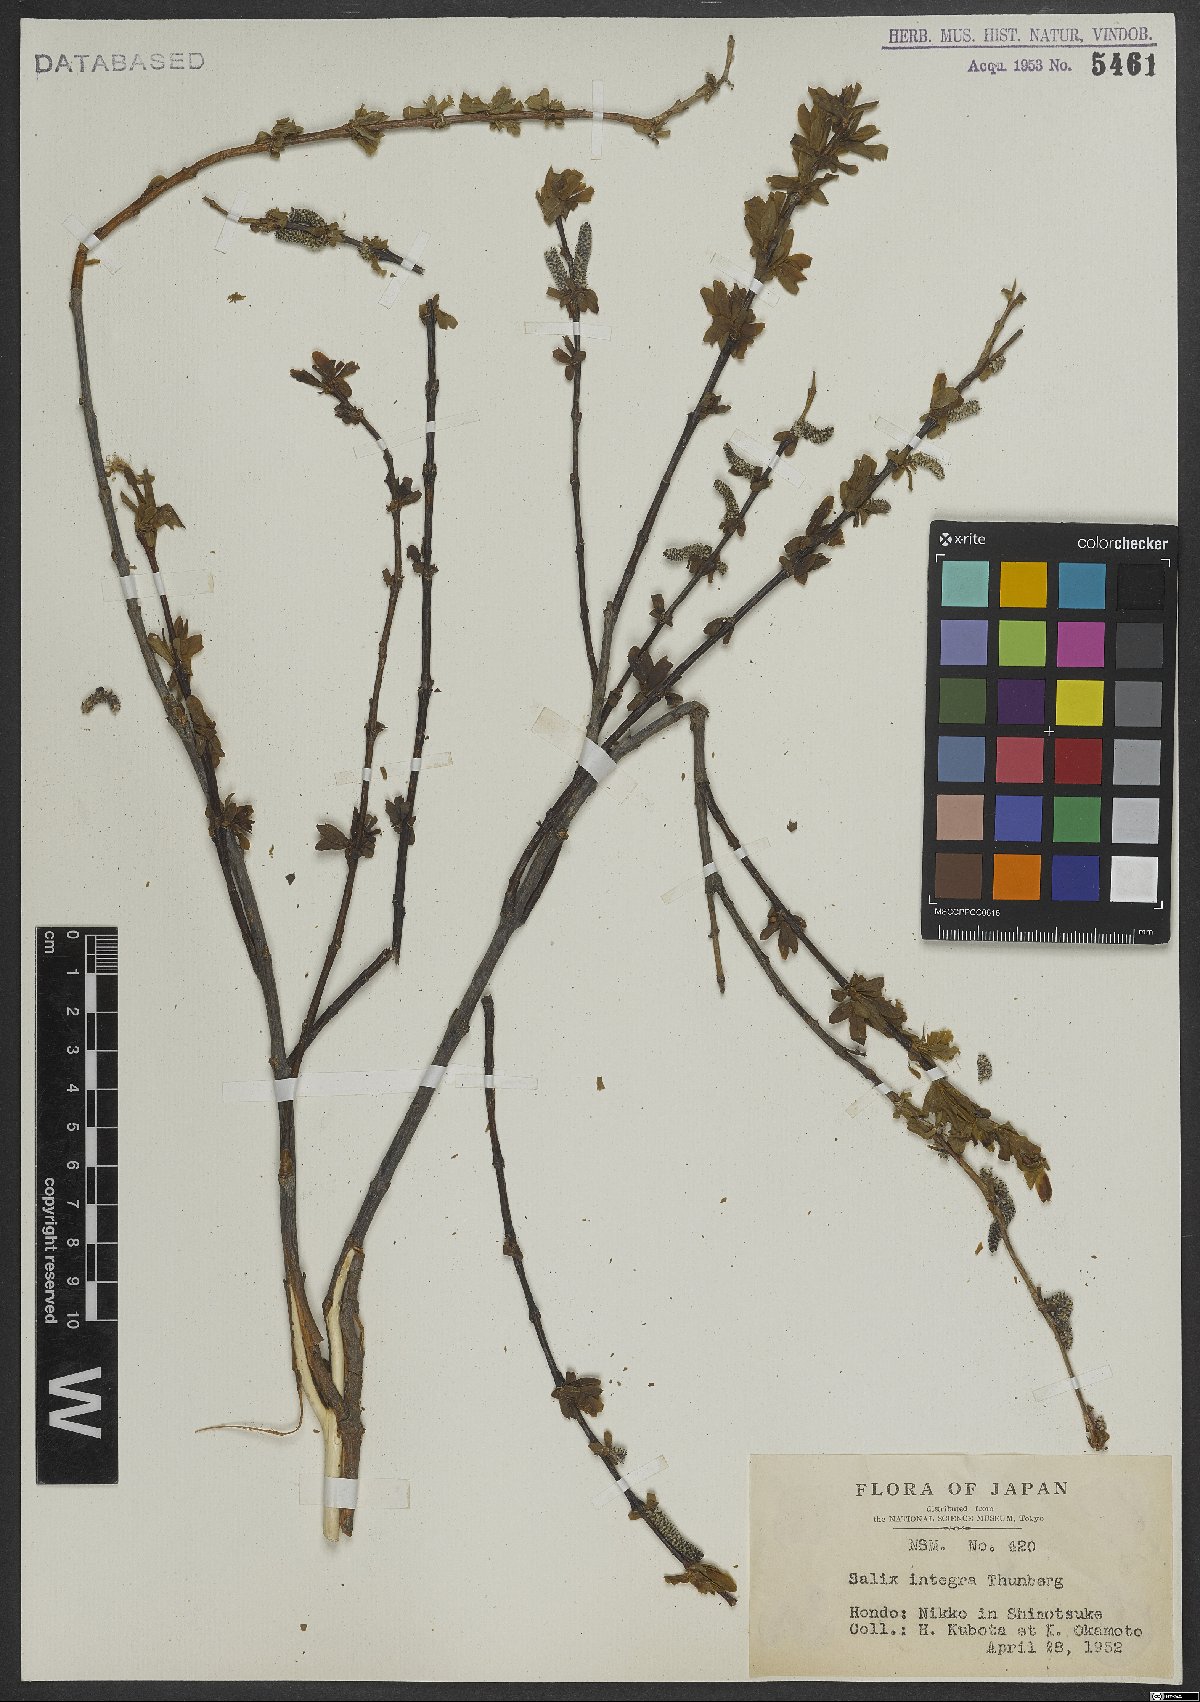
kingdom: Plantae
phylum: Tracheophyta
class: Magnoliopsida
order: Malpighiales
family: Salicaceae
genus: Salix
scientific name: Salix integra
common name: Dappled willow
